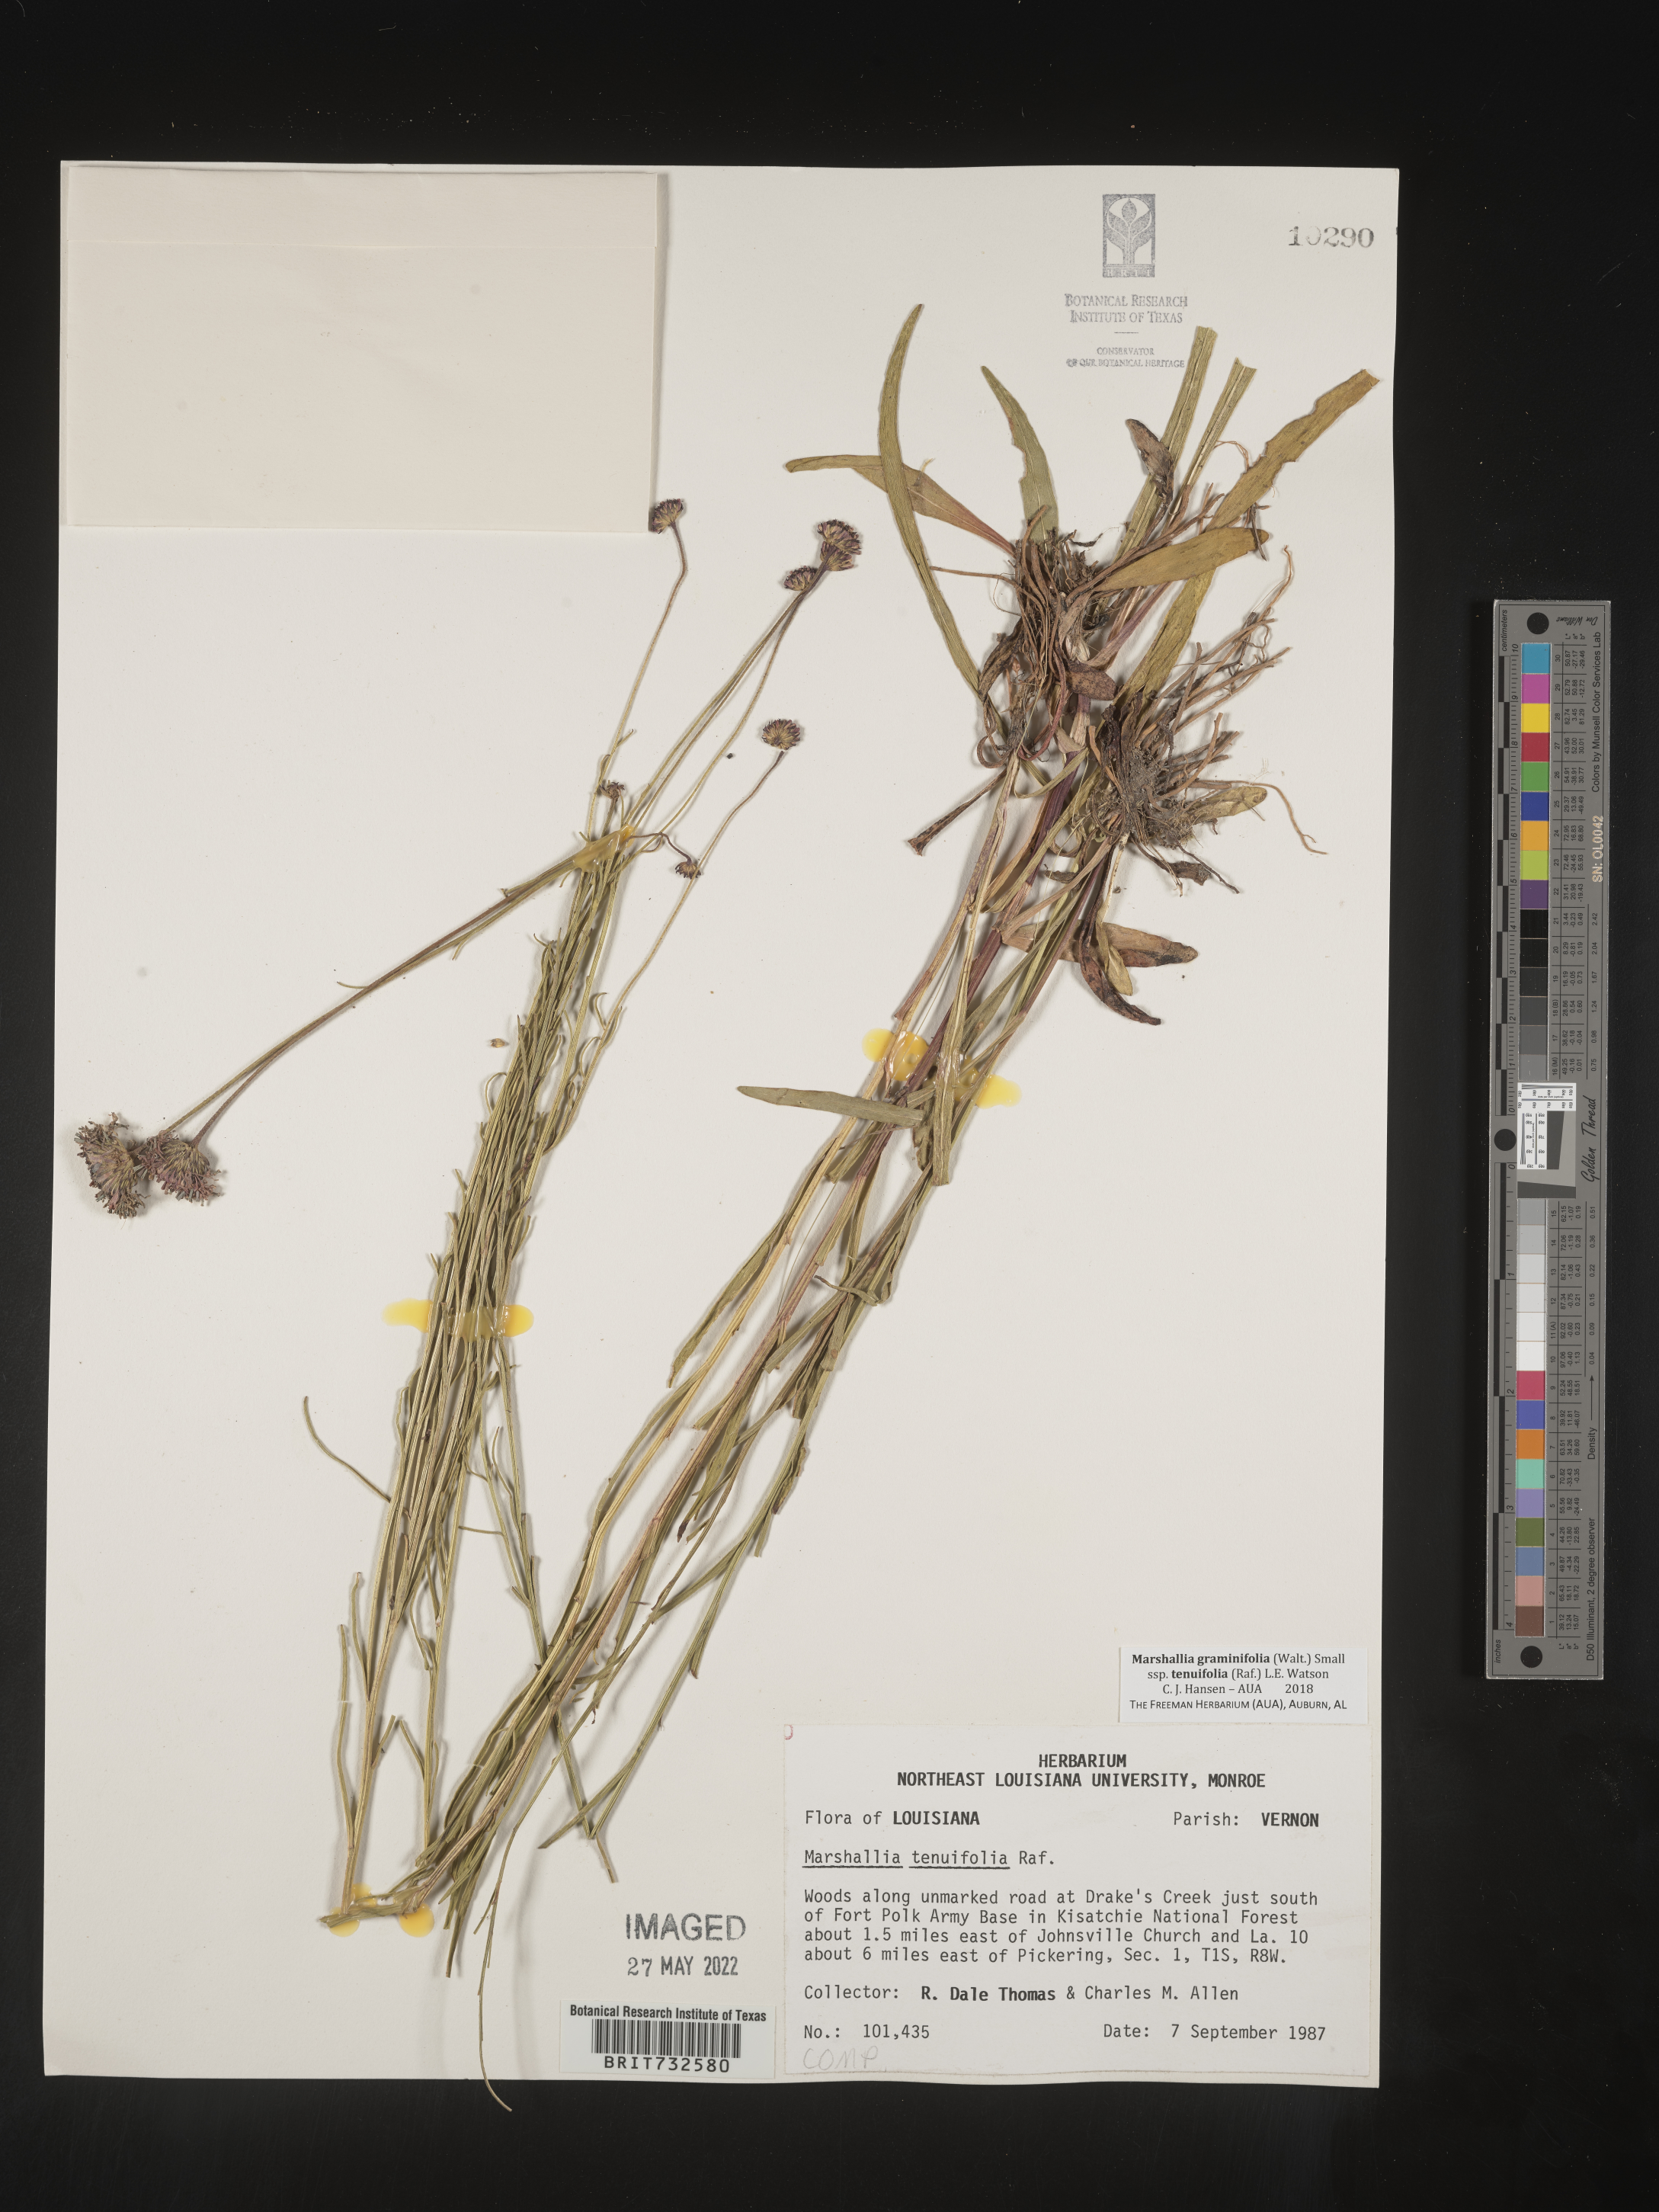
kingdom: Plantae
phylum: Tracheophyta
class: Magnoliopsida
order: Asterales
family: Asteraceae
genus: Marshallia
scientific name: Marshallia graminifolia
